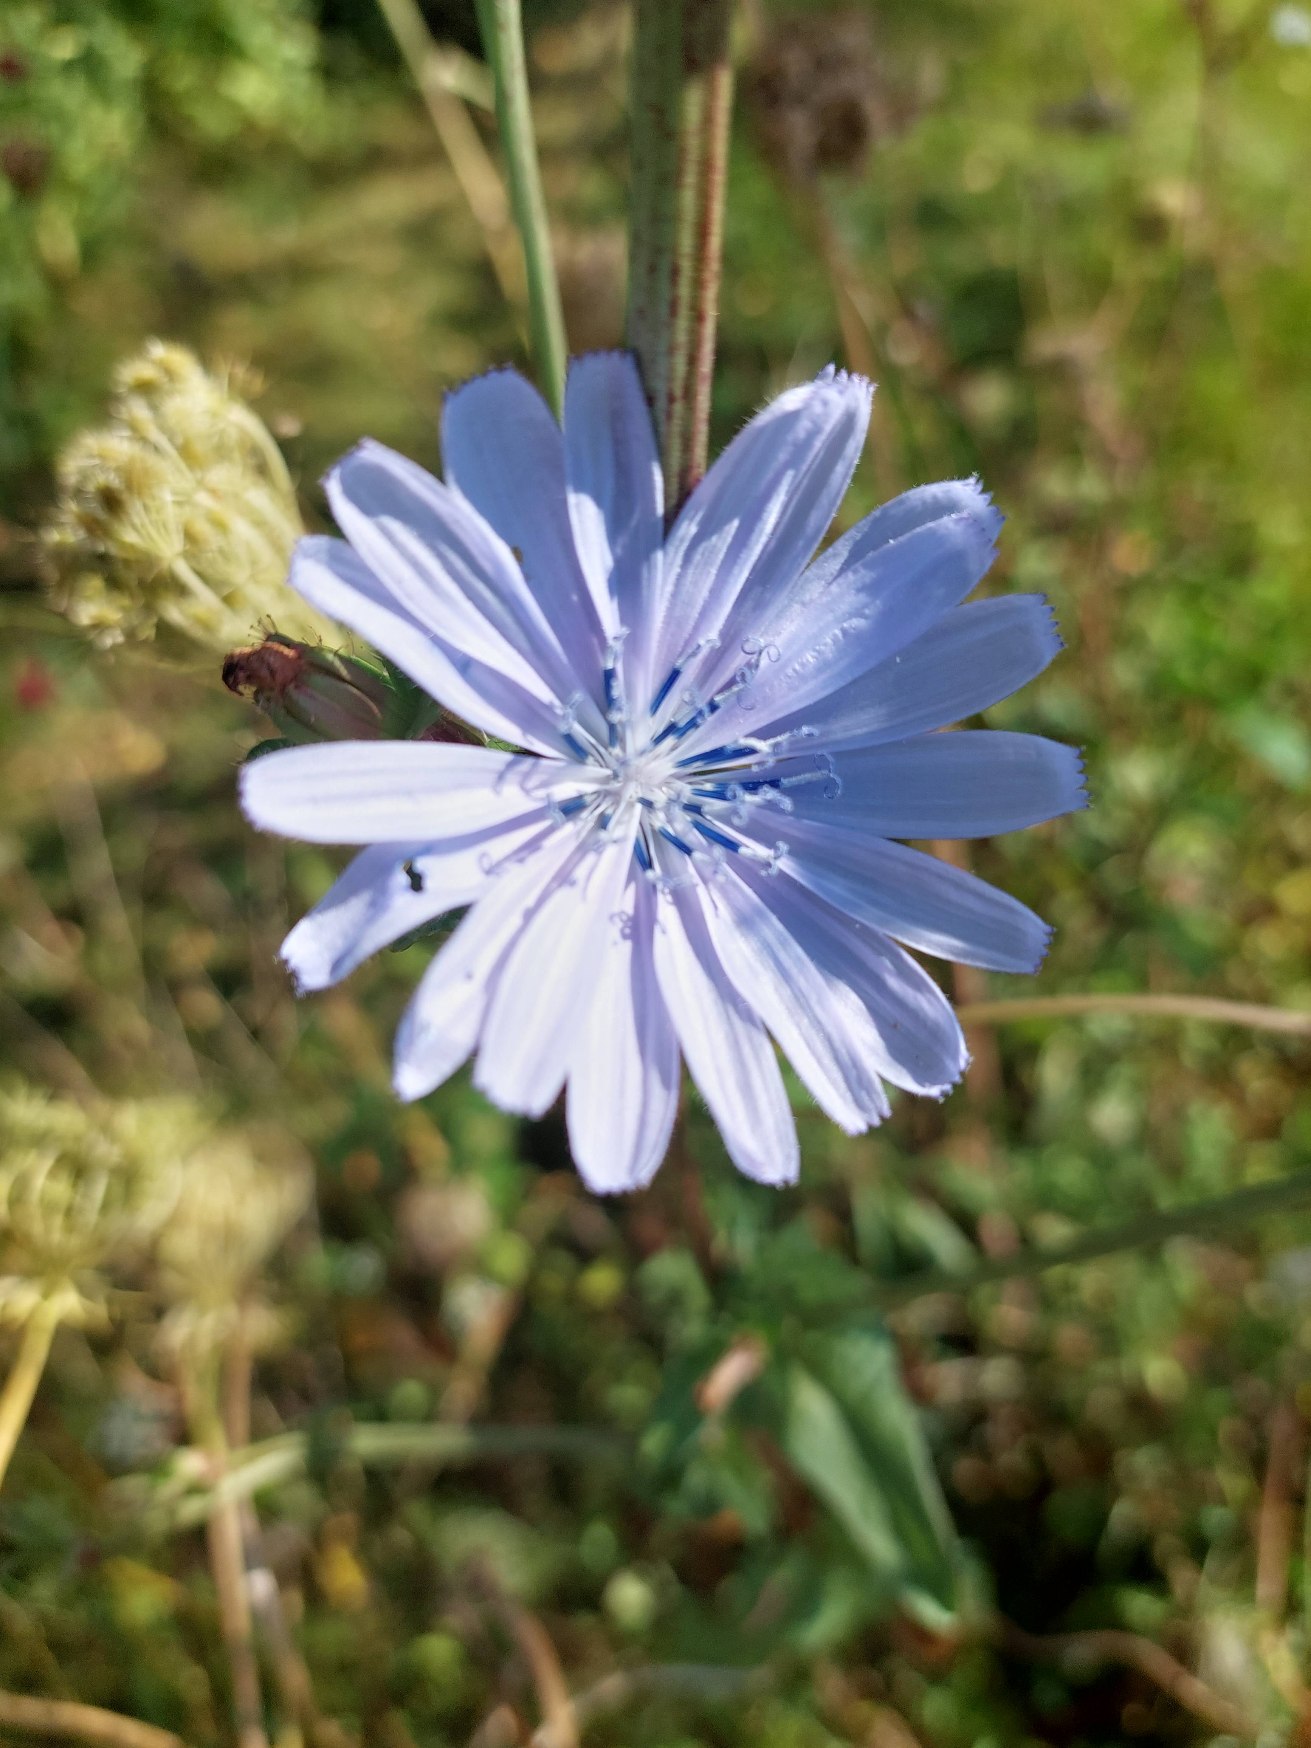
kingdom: Plantae
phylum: Tracheophyta
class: Magnoliopsida
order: Asterales
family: Asteraceae
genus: Cichorium
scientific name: Cichorium intybus
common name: Cikorie
